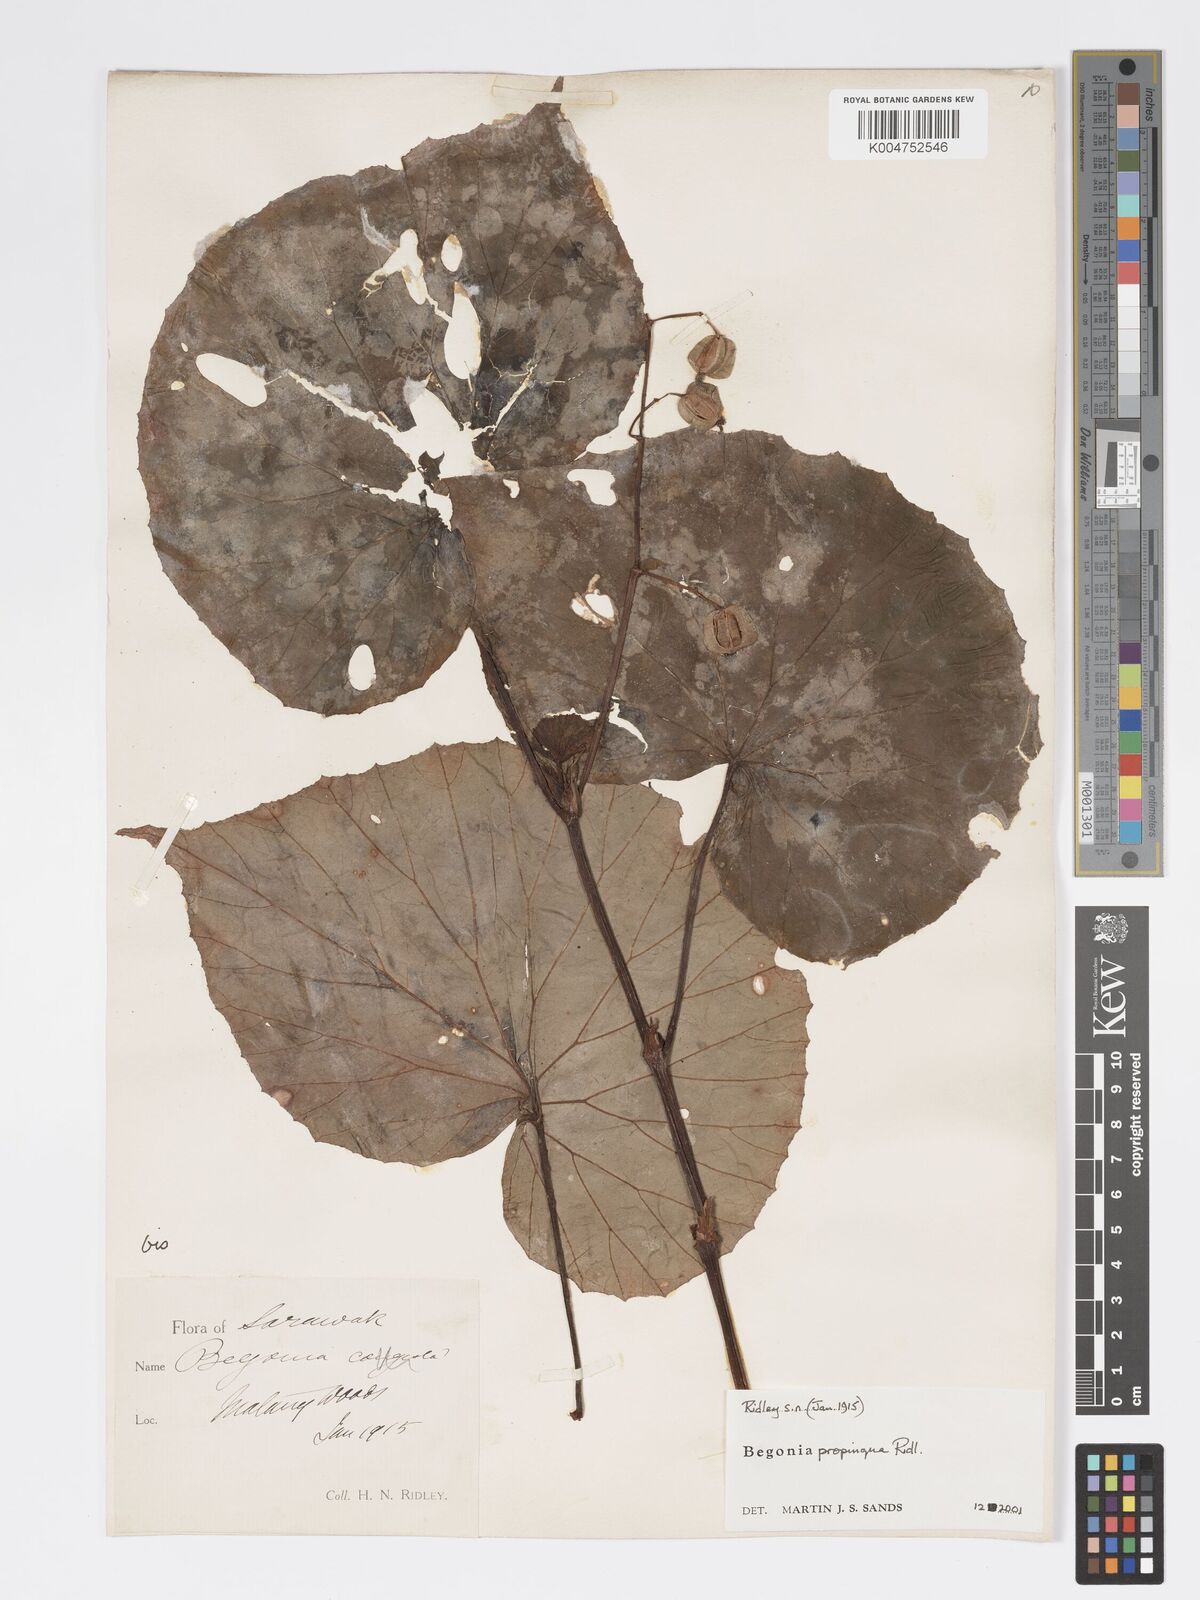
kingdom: Plantae
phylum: Tracheophyta
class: Magnoliopsida
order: Cucurbitales
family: Begoniaceae
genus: Begonia
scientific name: Begonia propinqua
